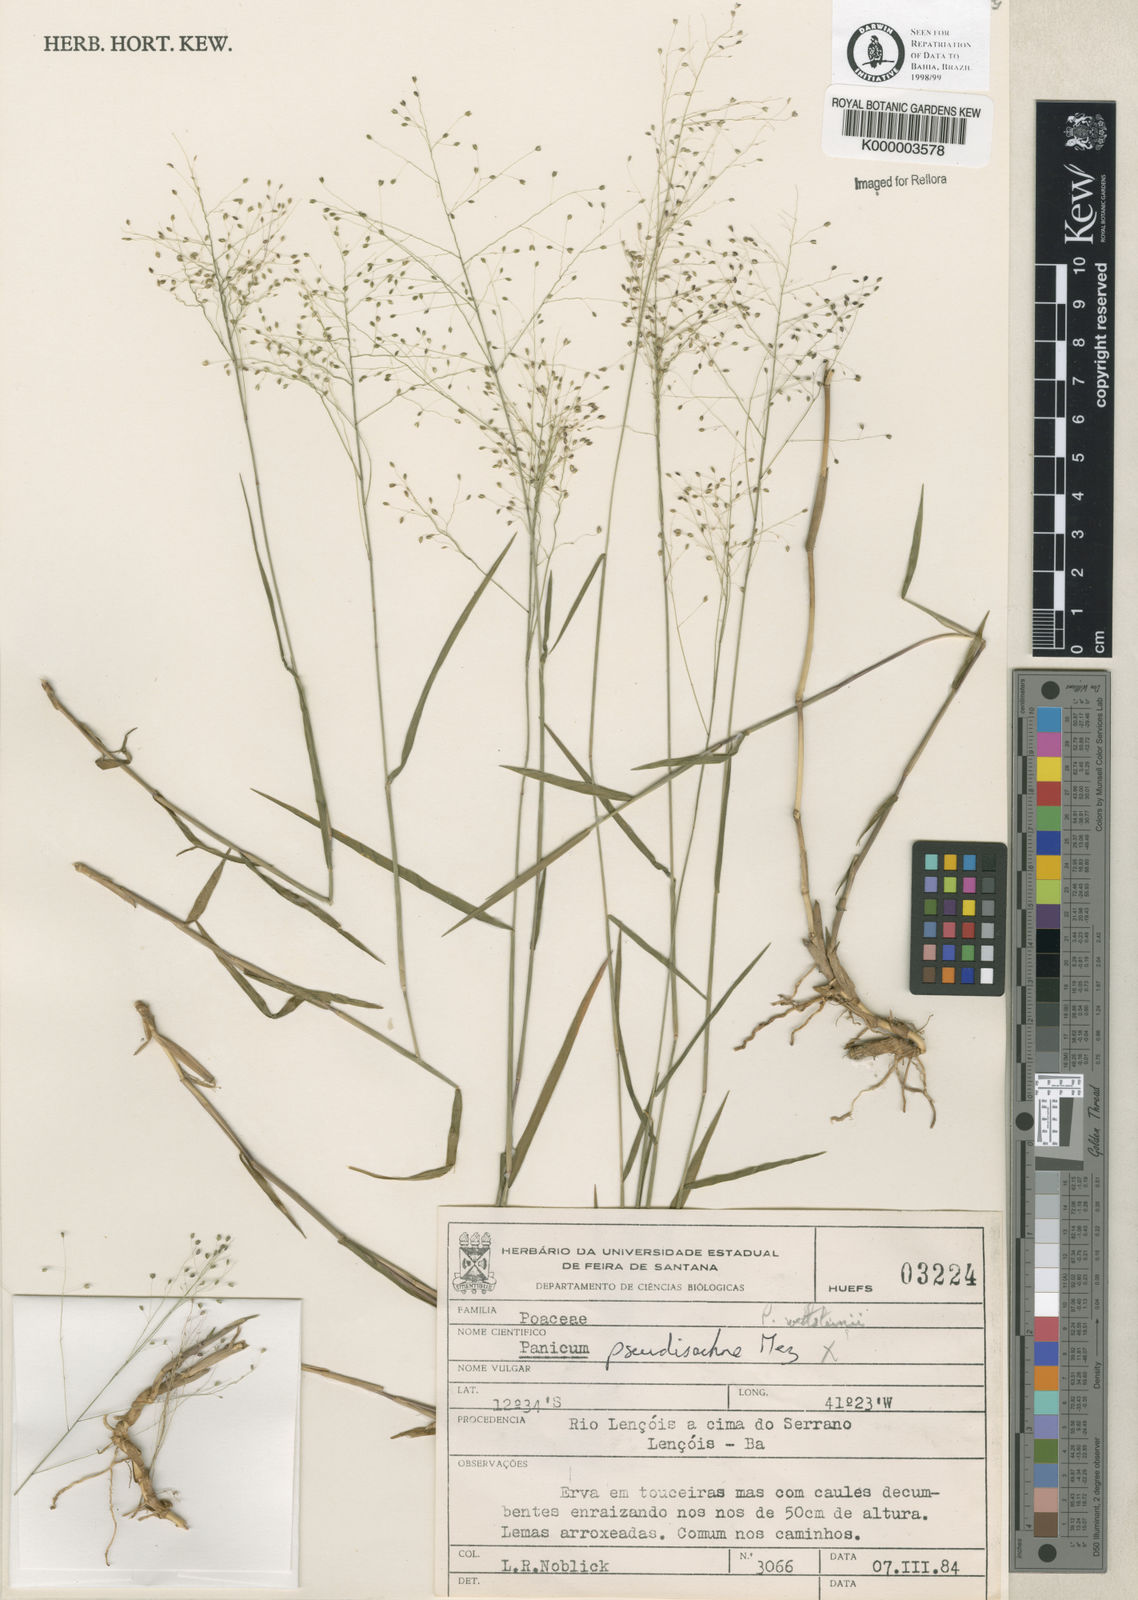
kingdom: Plantae
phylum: Tracheophyta
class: Liliopsida
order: Poales
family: Poaceae
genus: Trichanthecium
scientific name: Trichanthecium pseudisachne
